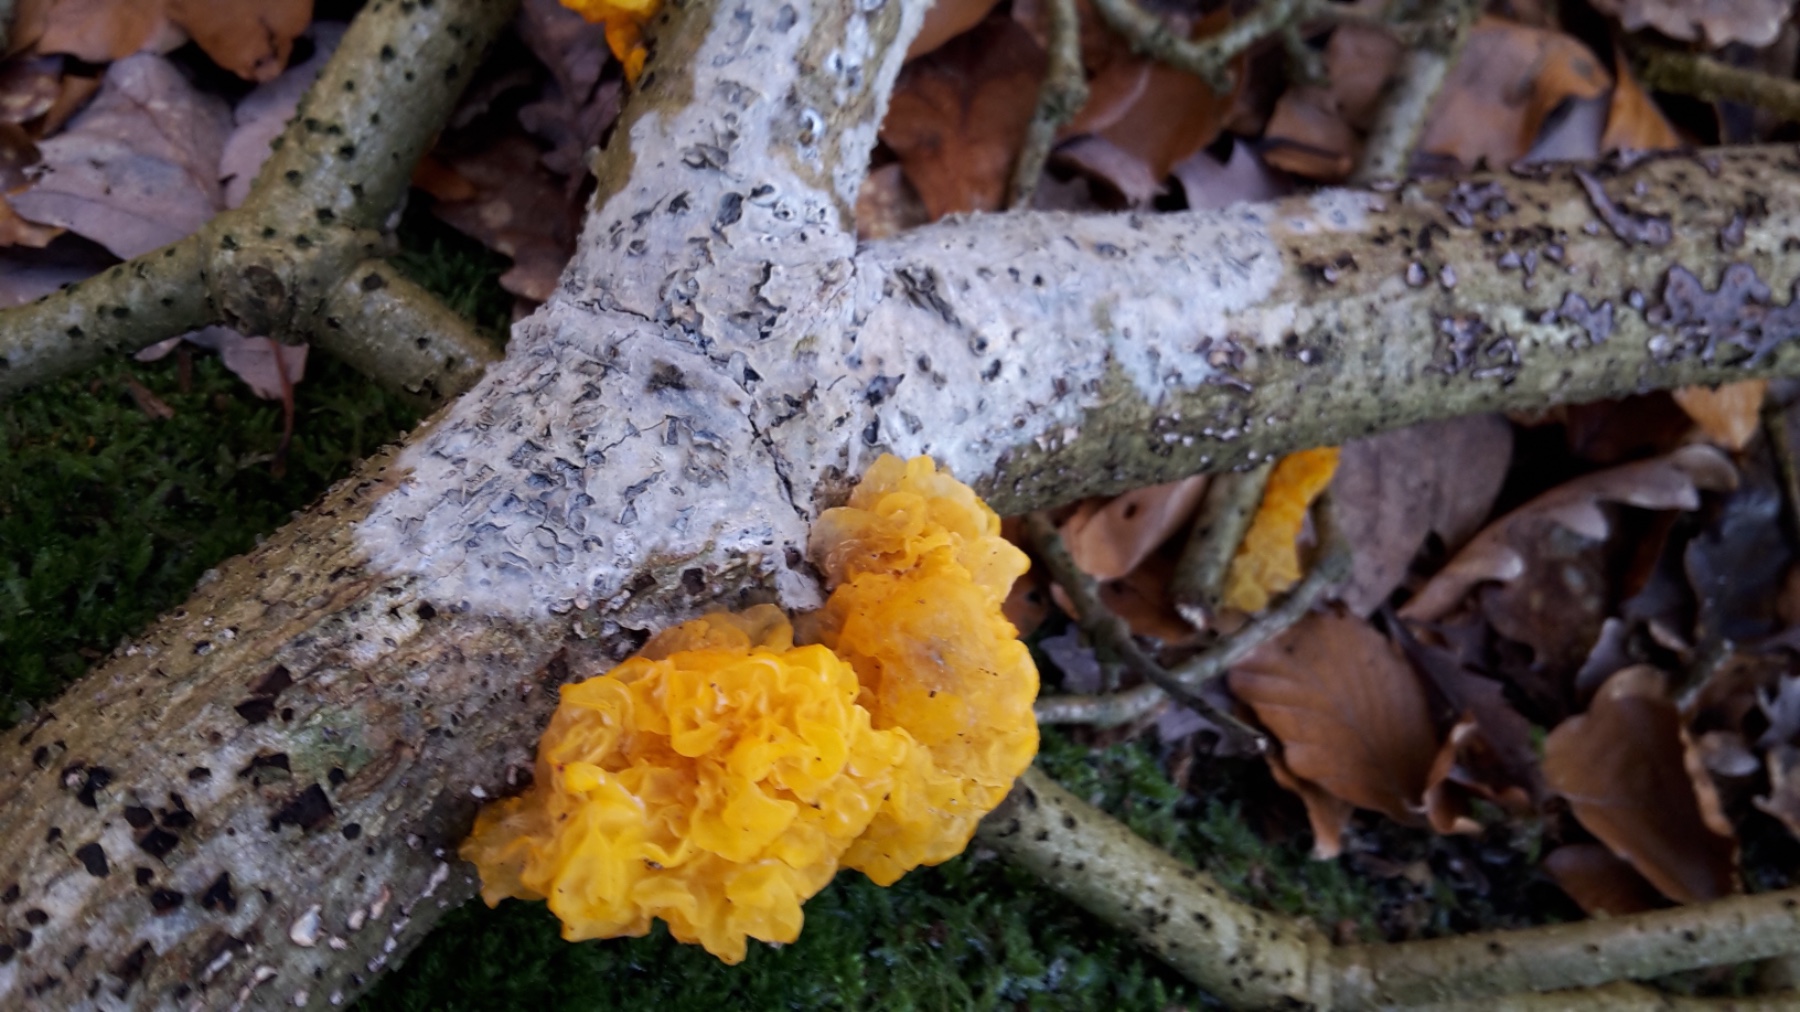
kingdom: Fungi
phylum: Basidiomycota
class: Tremellomycetes
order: Tremellales
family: Tremellaceae
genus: Tremella
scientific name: Tremella mesenterica
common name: gul bævresvamp
